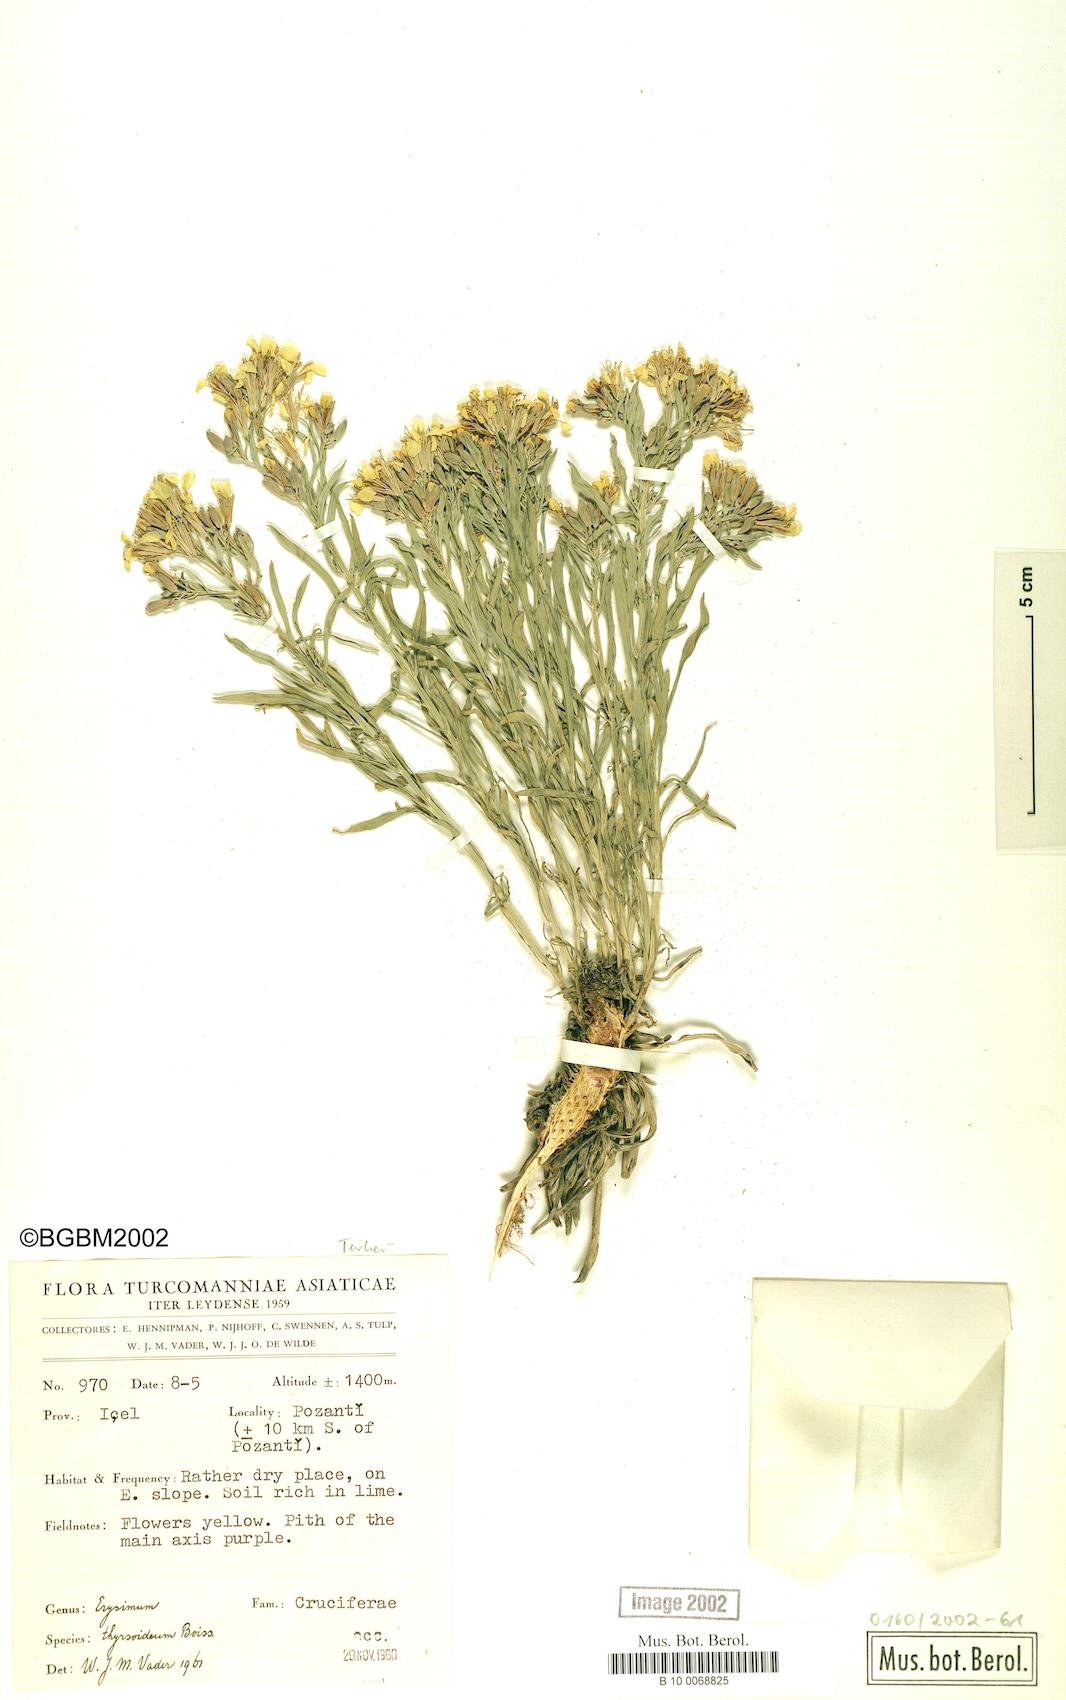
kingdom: Plantae
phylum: Tracheophyta
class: Magnoliopsida
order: Brassicales
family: Brassicaceae
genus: Erysimum
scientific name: Erysimum pycnophyllum
